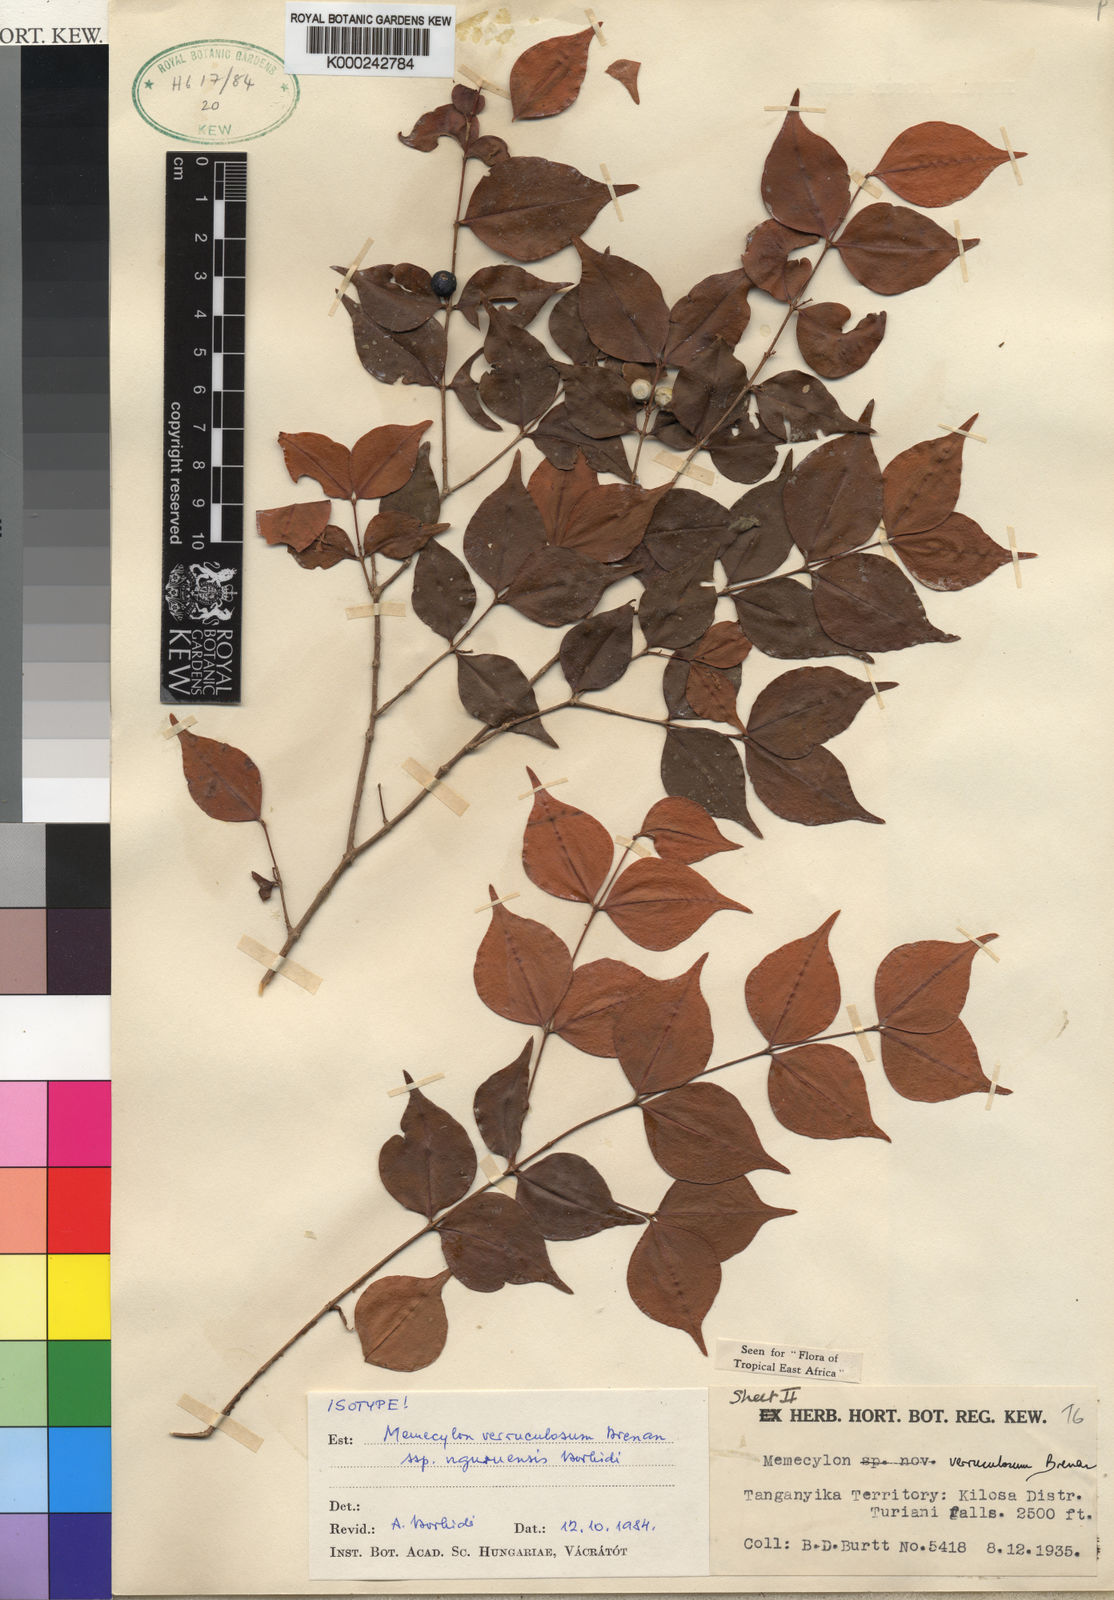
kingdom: Plantae
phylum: Tracheophyta
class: Magnoliopsida
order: Myrtales
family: Melastomataceae
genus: Memecylon
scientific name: Memecylon verruculosum
